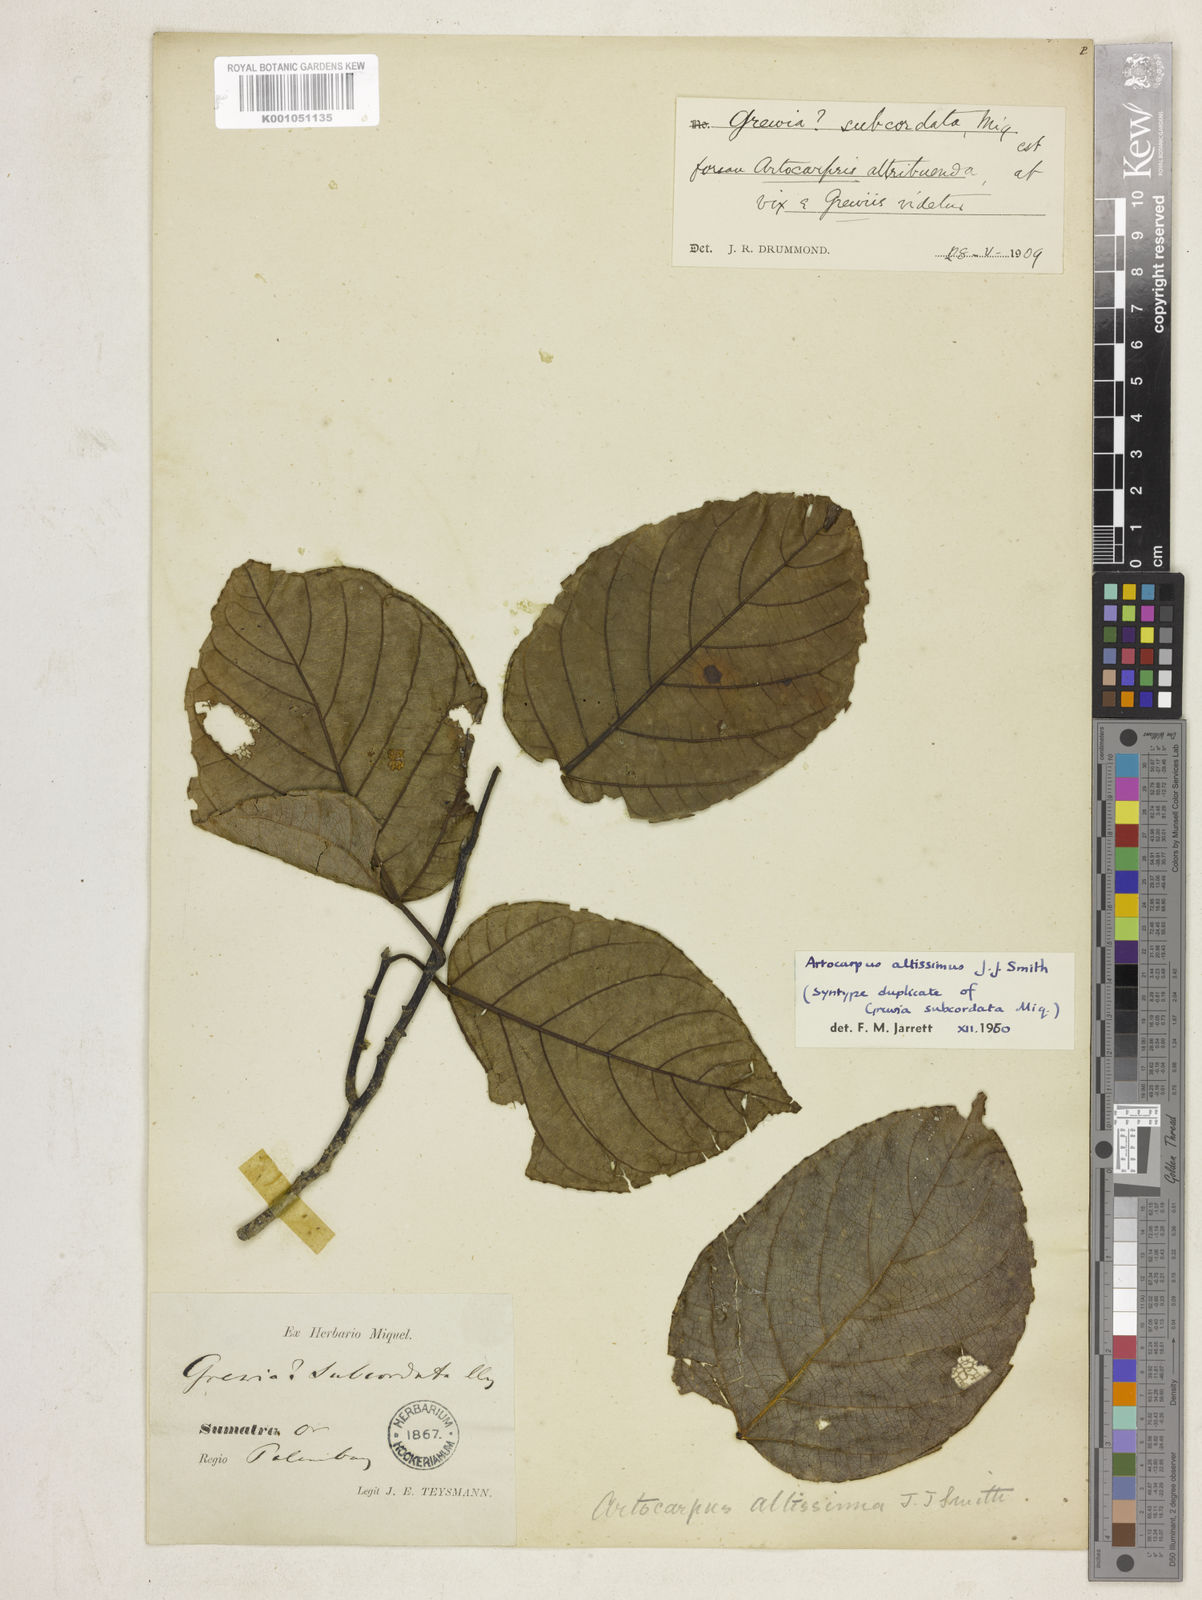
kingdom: Plantae
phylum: Tracheophyta
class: Magnoliopsida
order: Rosales
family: Moraceae
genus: Artocarpus
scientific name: Artocarpus altissimus
